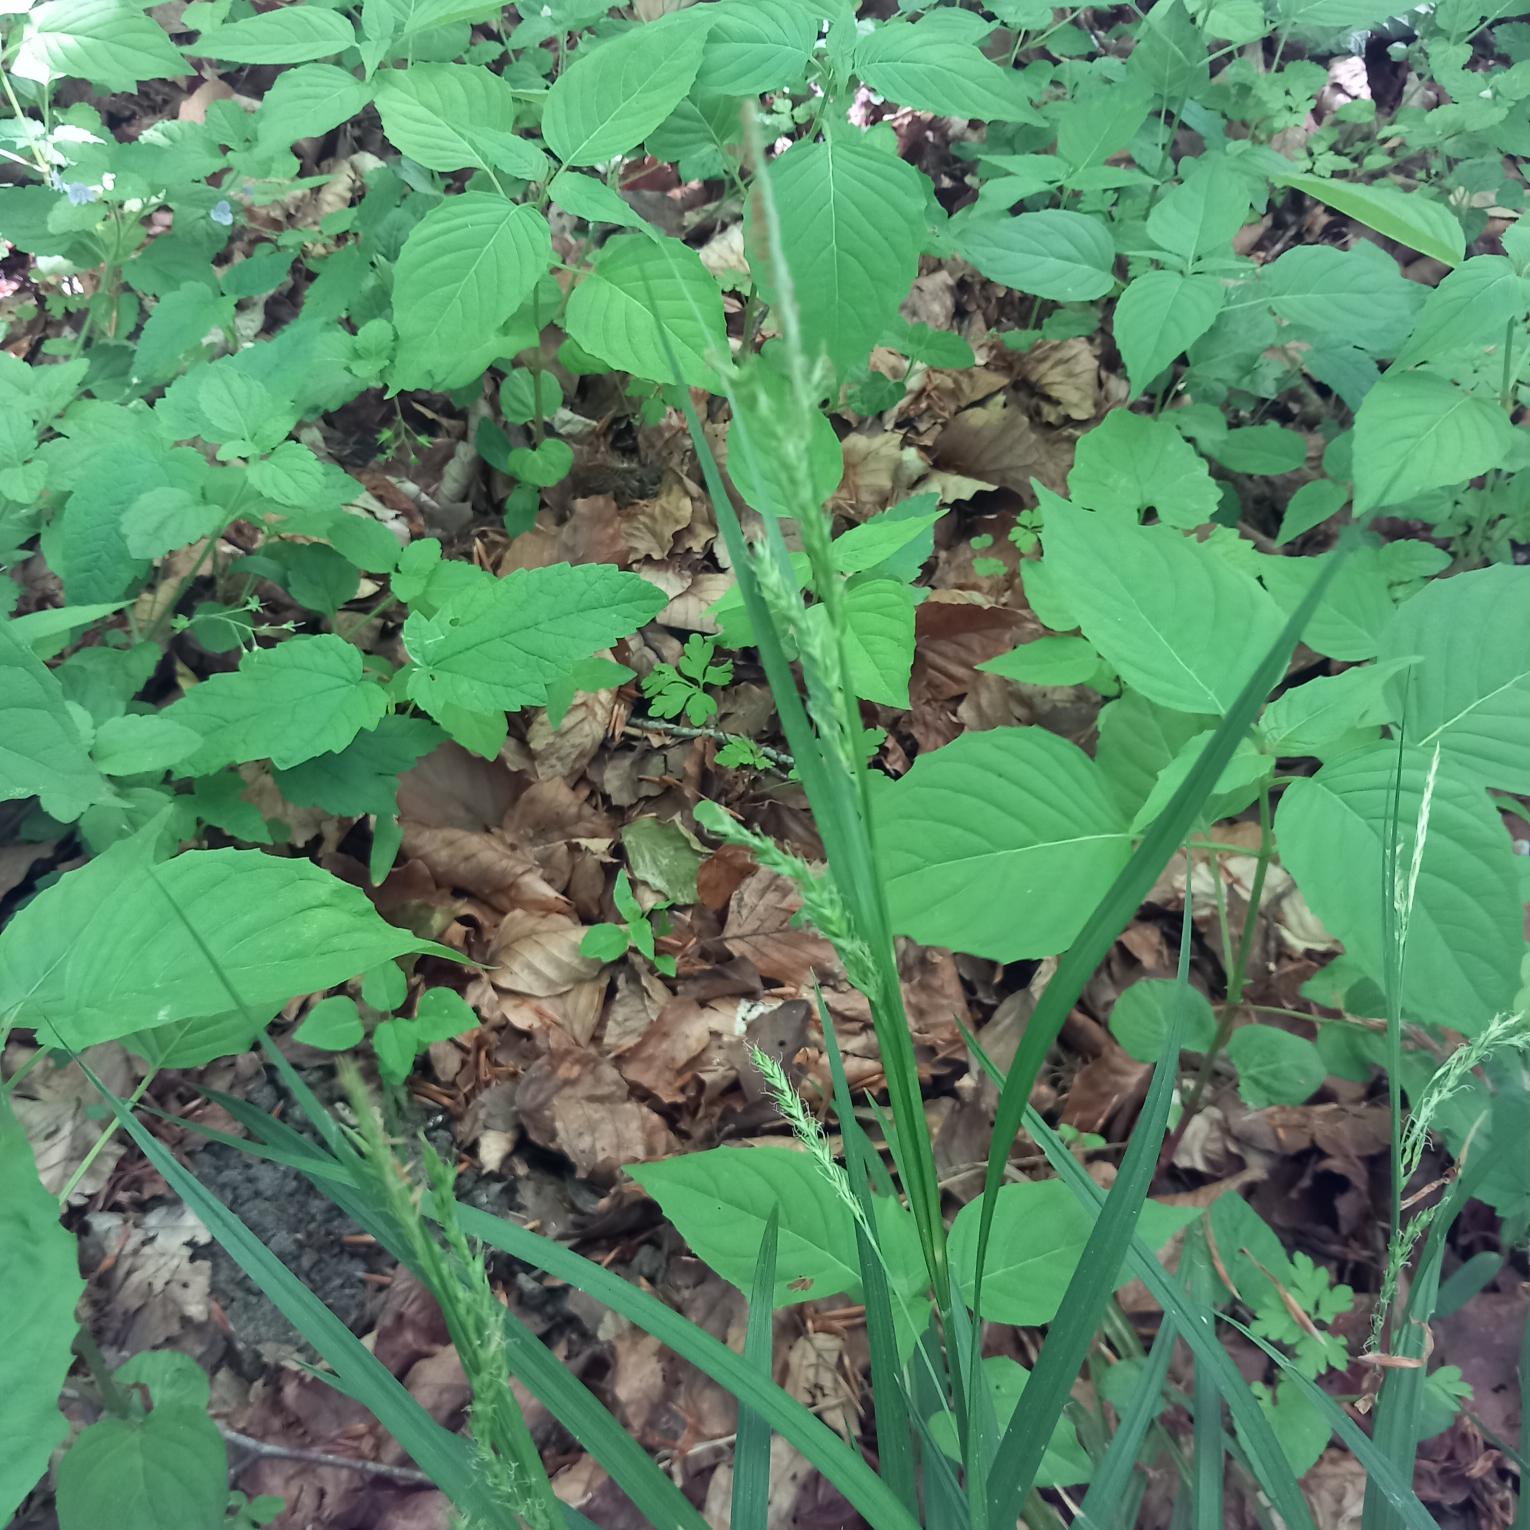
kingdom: Plantae
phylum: Tracheophyta
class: Liliopsida
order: Poales
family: Cyperaceae
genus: Carex
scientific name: Carex sylvatica
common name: Skov-star
